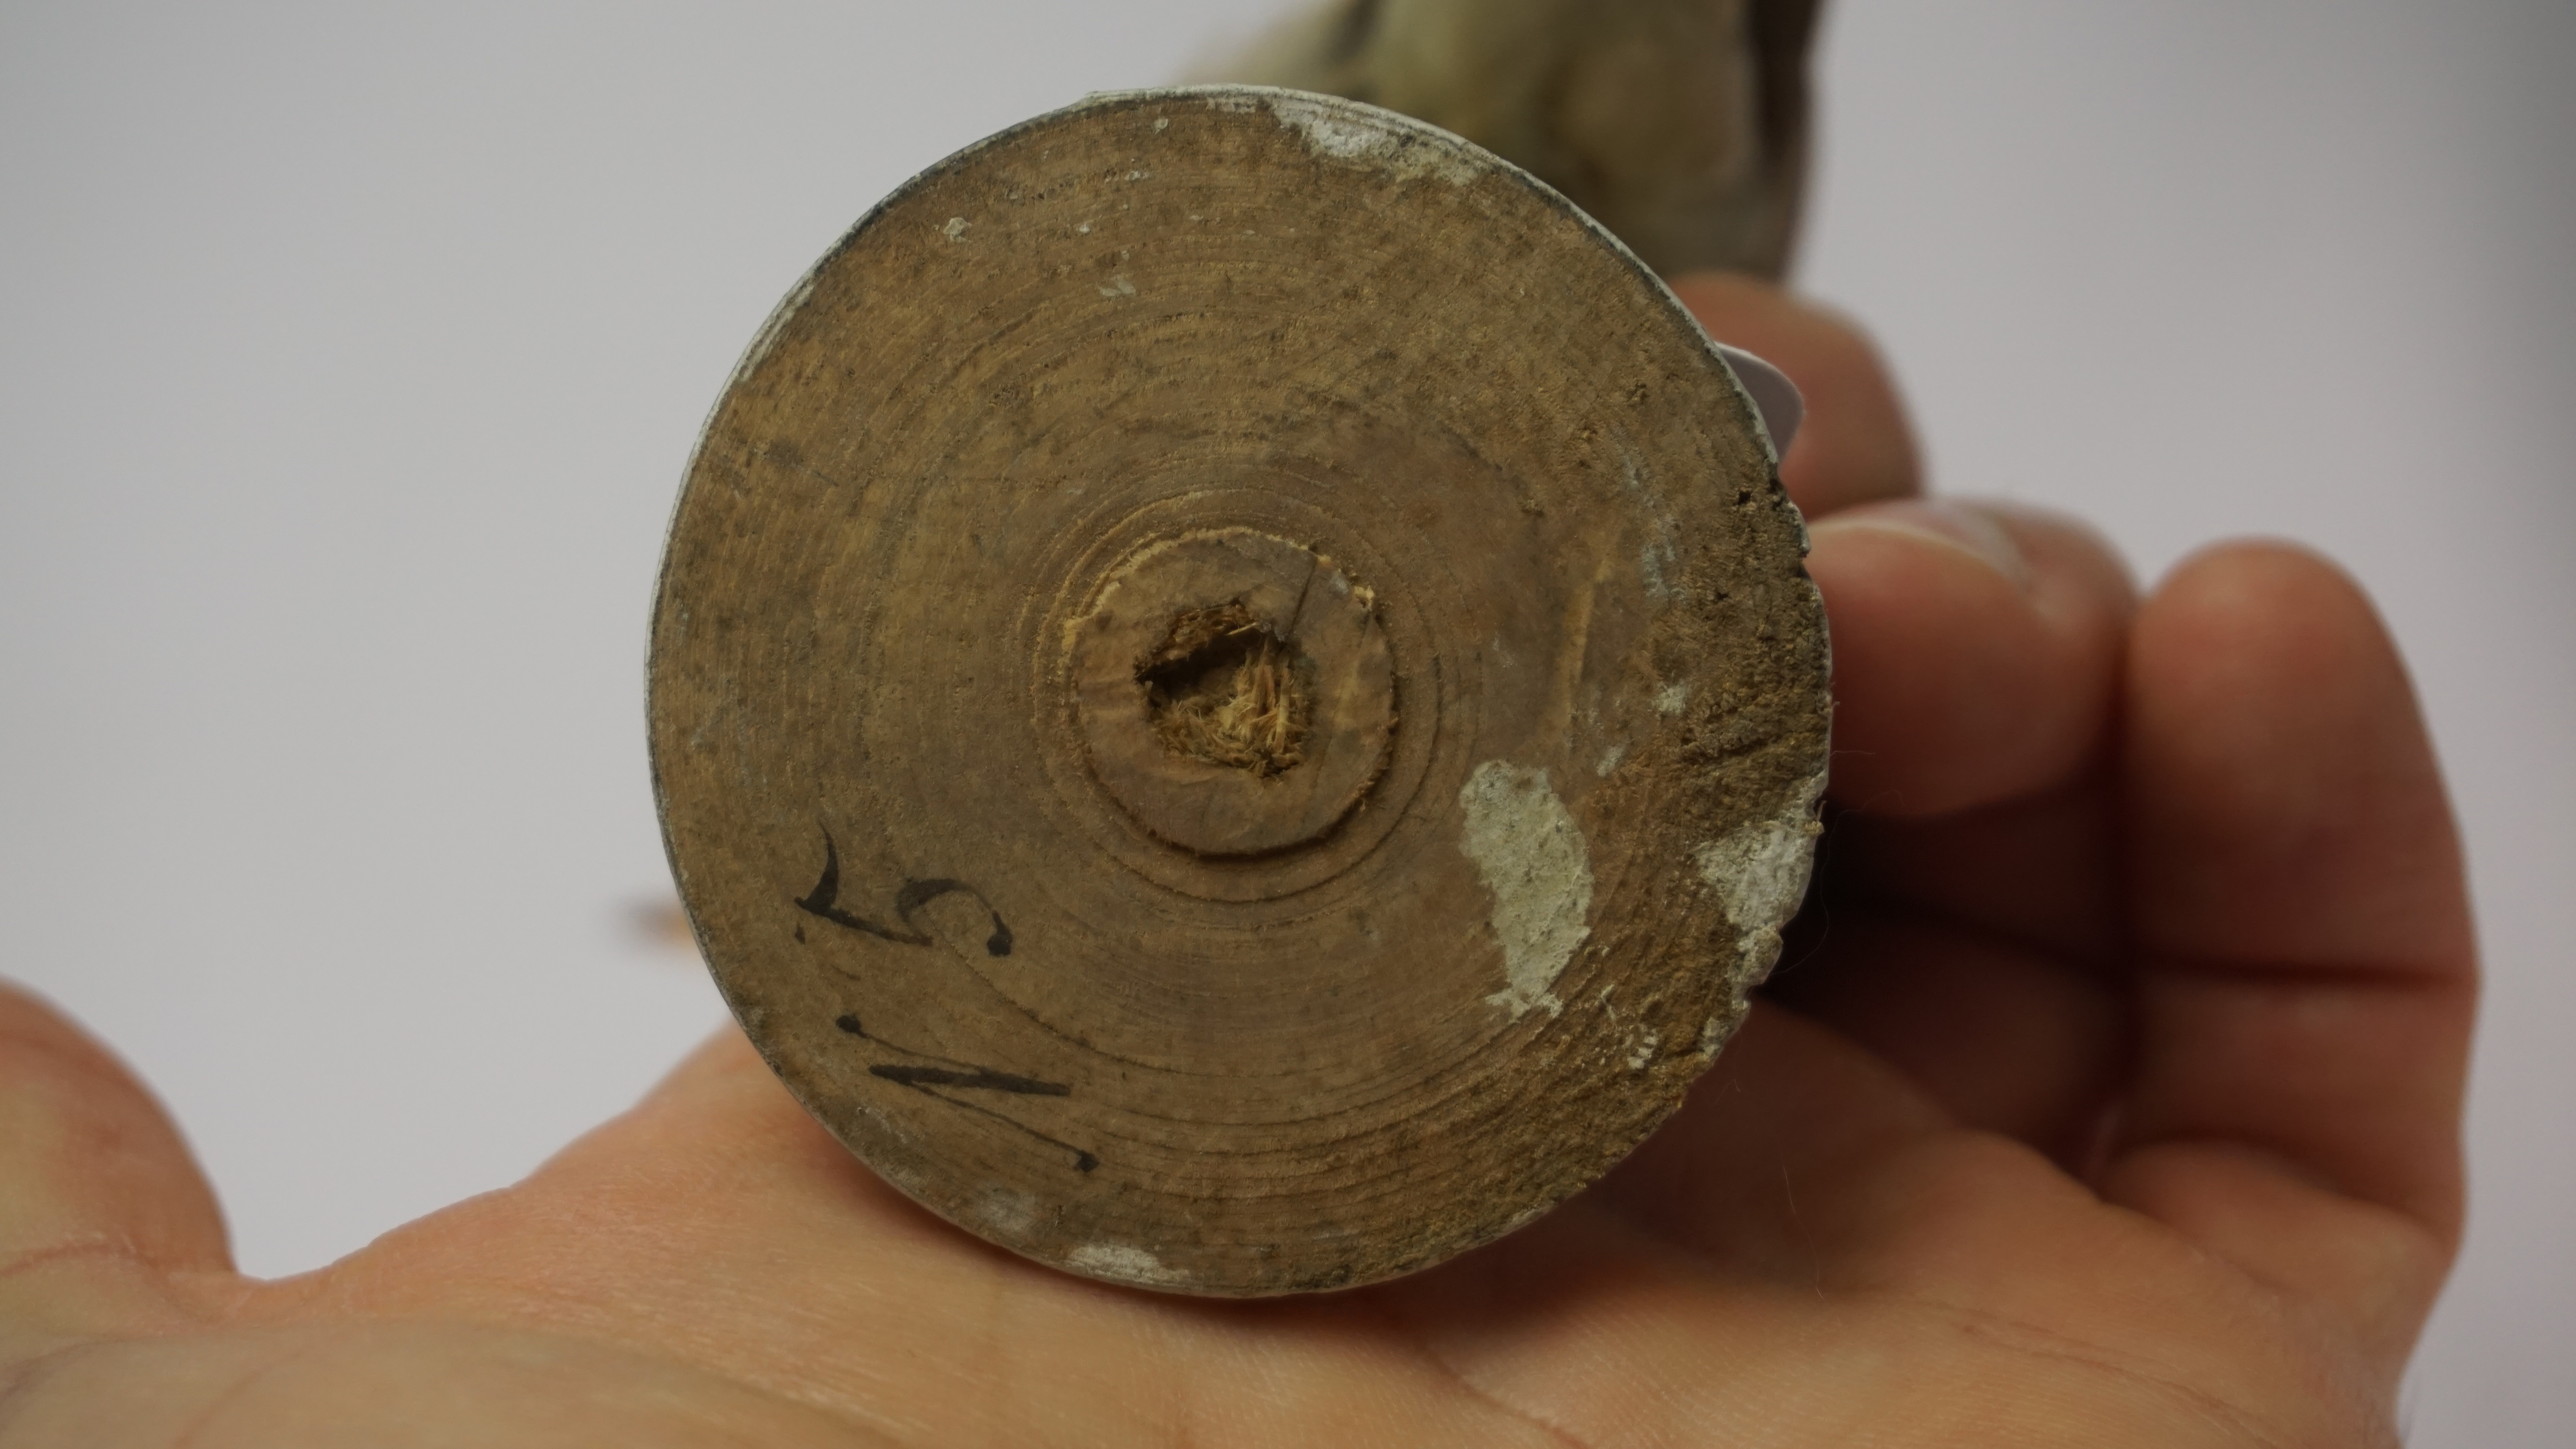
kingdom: Animalia
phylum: Chordata
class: Aves
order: Passeriformes
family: Tephrodornithidae
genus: Tephrodornis
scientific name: Tephrodornis pondicerianus
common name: Common woodshrike
